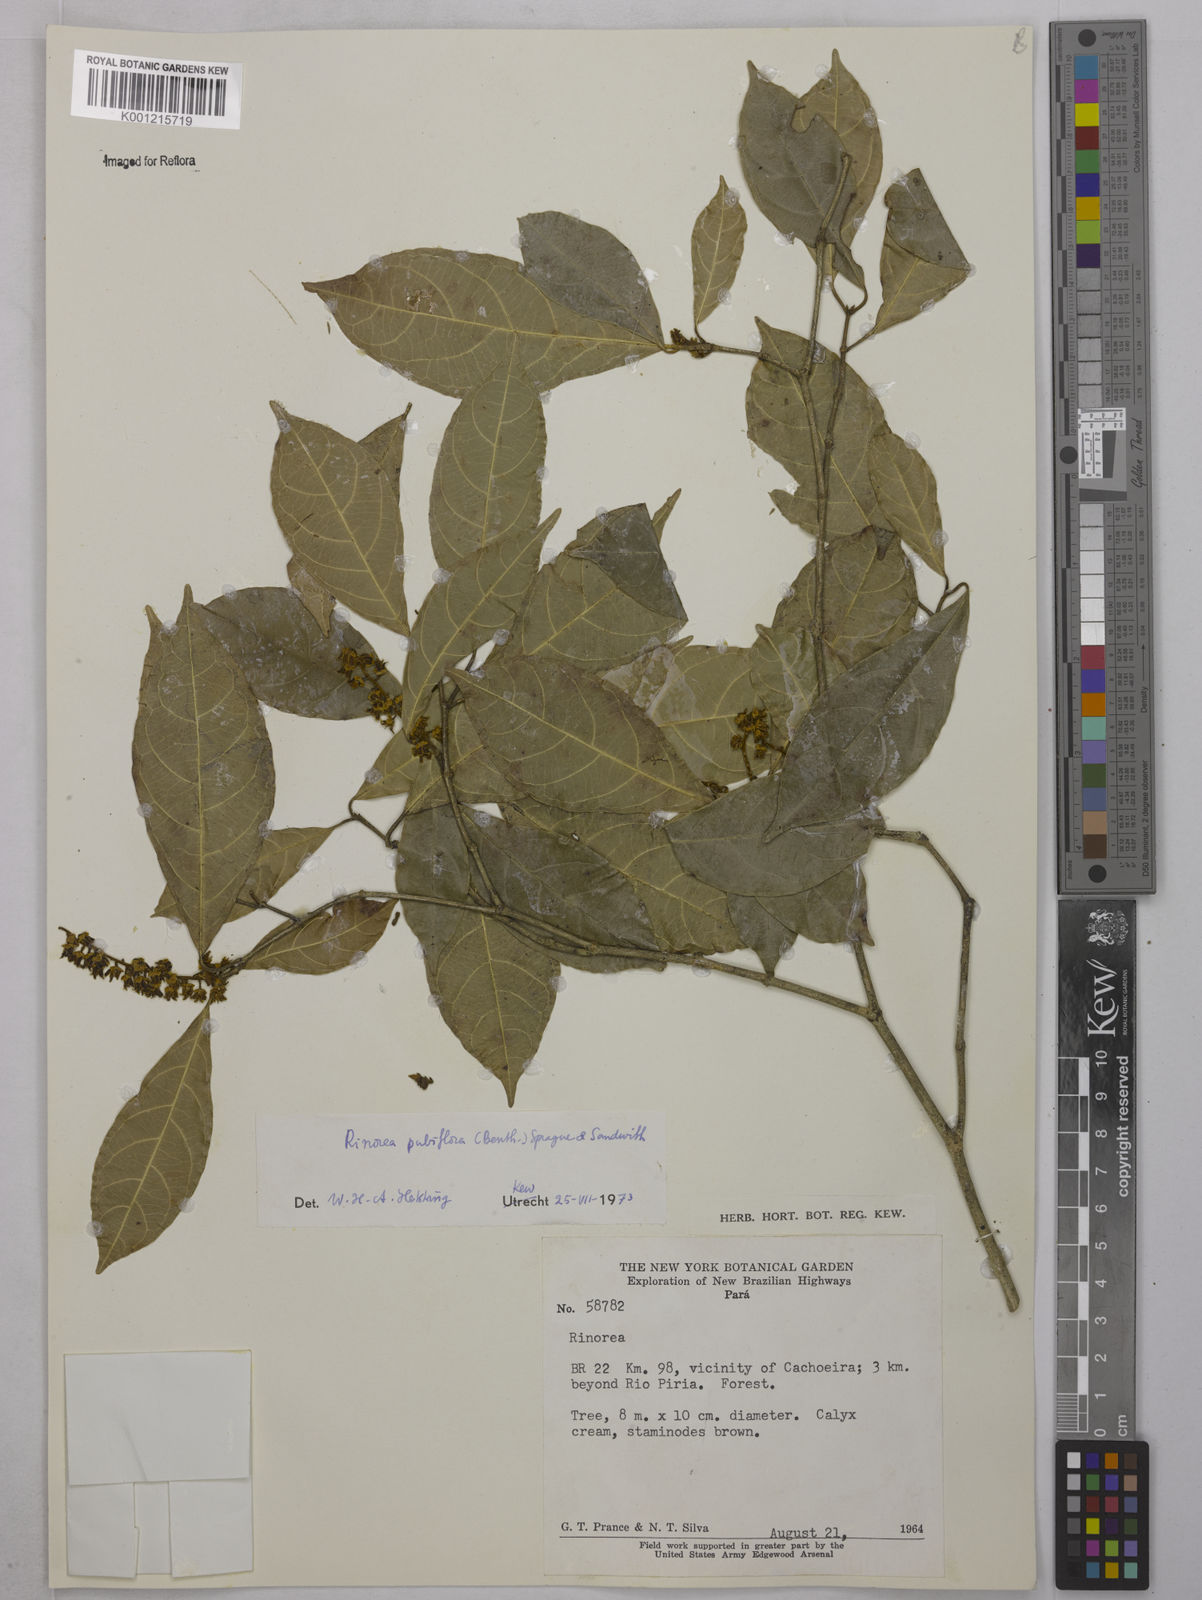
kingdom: Plantae
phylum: Tracheophyta
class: Magnoliopsida
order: Malpighiales
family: Violaceae
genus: Rinorea
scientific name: Rinorea pubiflora
